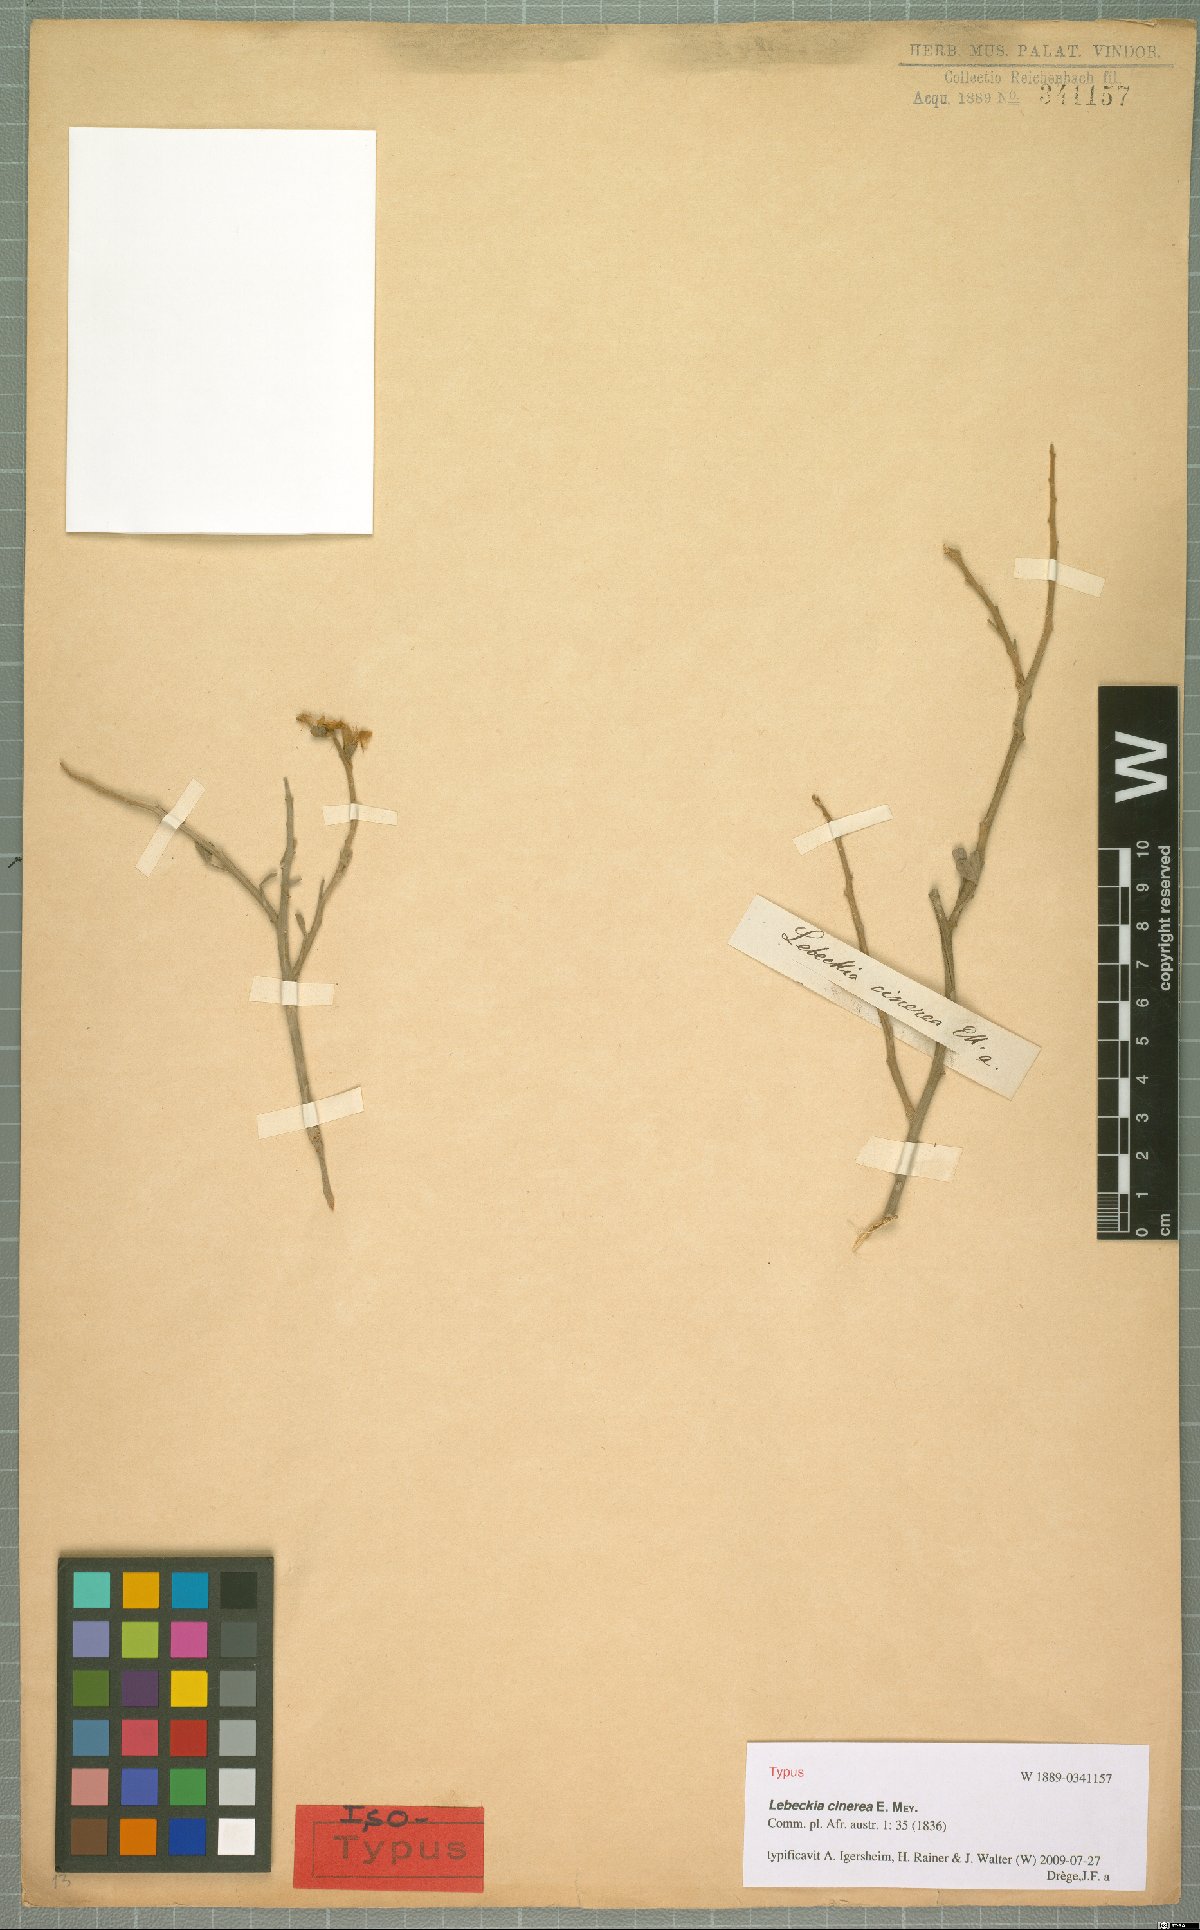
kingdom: Plantae
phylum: Tracheophyta
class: Magnoliopsida
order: Fabales
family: Fabaceae
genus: Calobota
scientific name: Calobota cinerea
